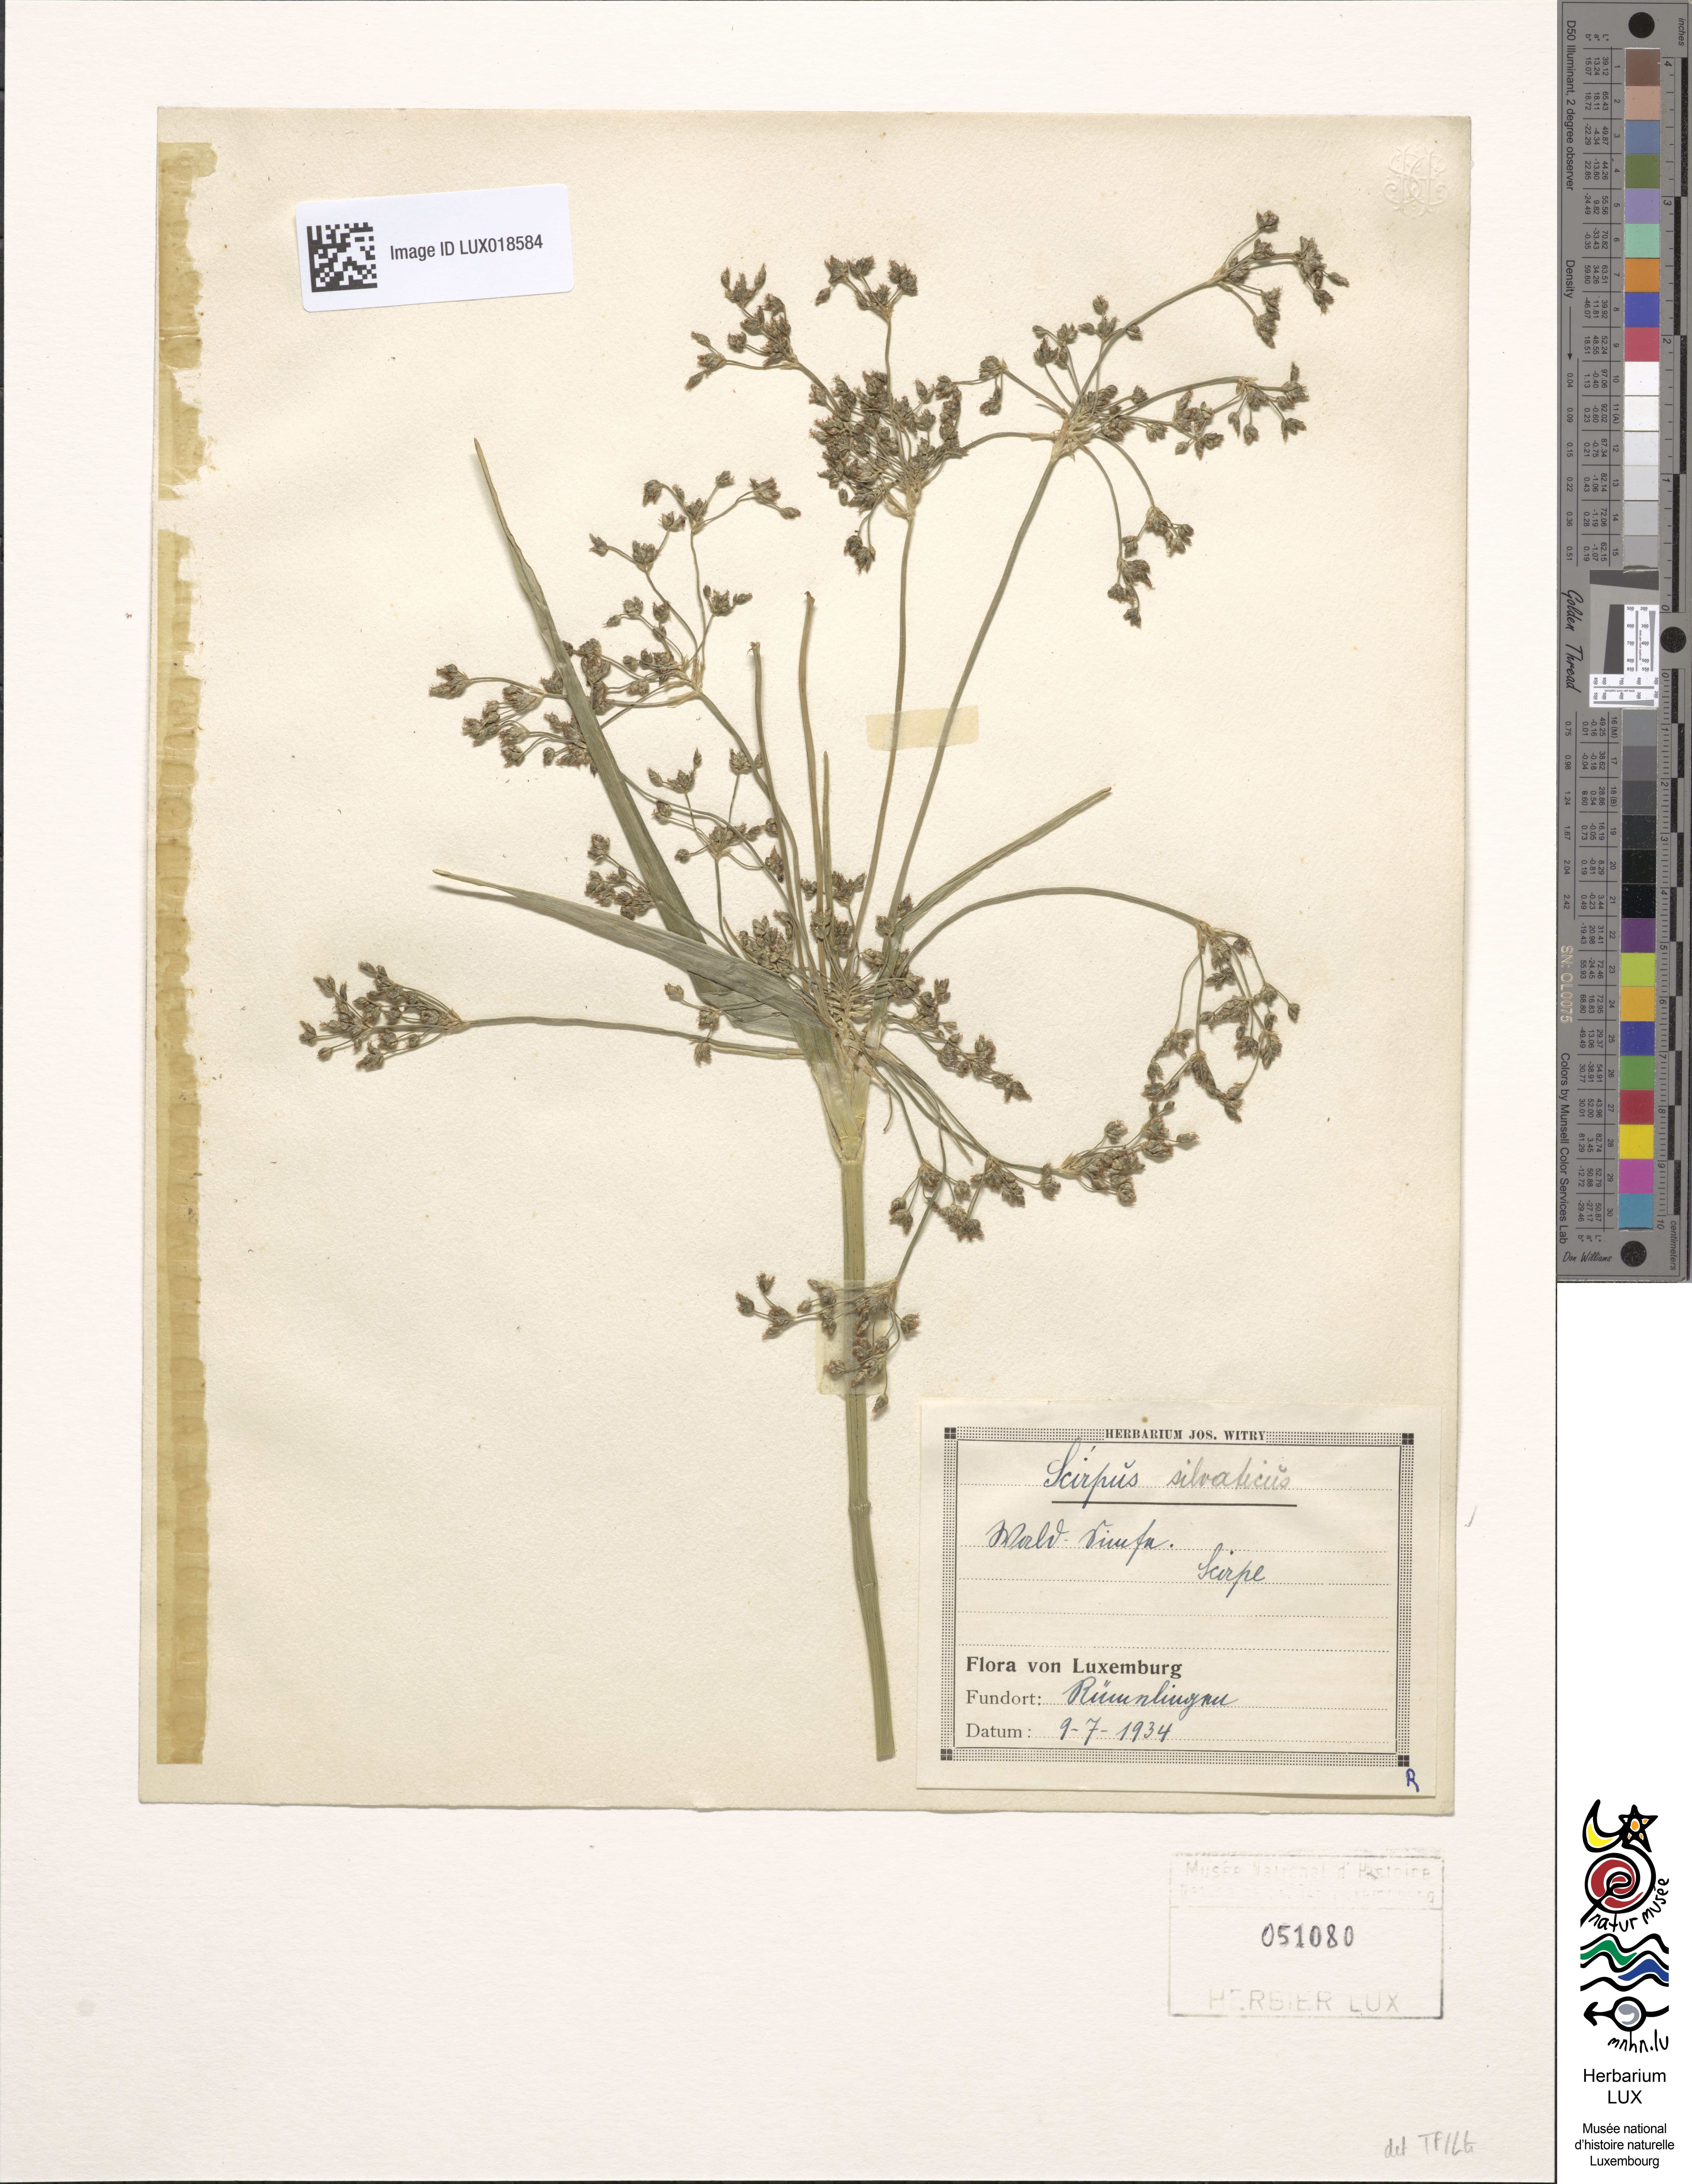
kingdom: Plantae
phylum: Tracheophyta
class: Liliopsida
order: Poales
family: Cyperaceae
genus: Scirpus
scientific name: Scirpus sylvaticus
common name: Wood club-rush
